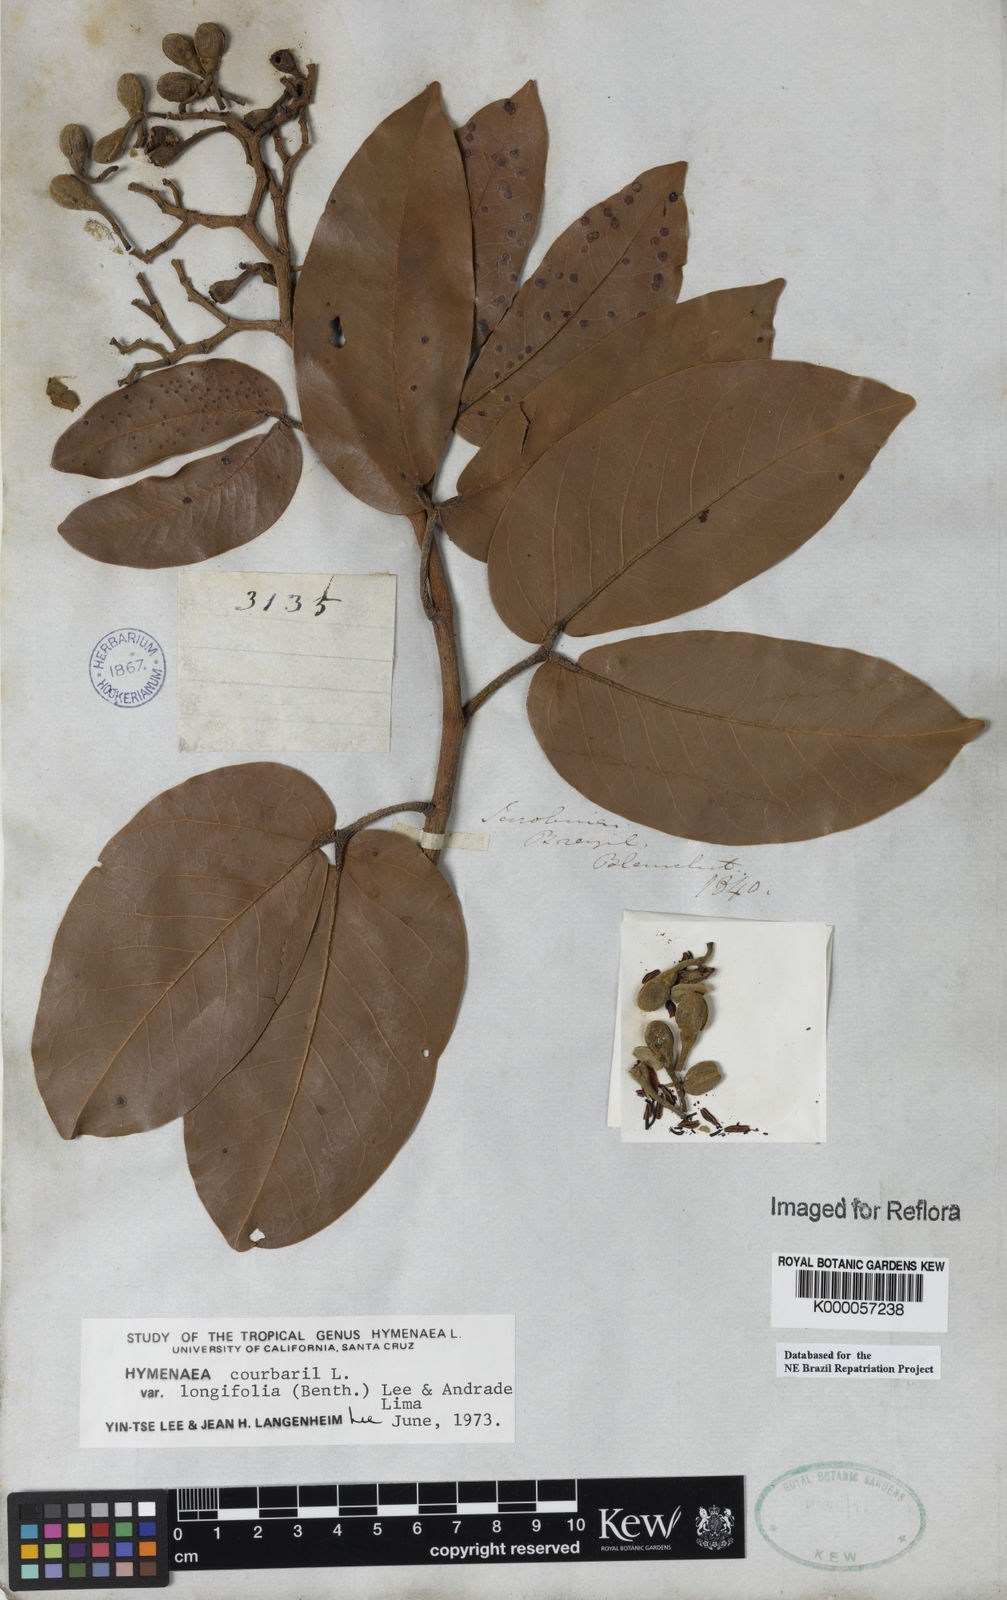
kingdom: Plantae
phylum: Tracheophyta
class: Magnoliopsida
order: Fabales
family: Fabaceae
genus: Hymenaea
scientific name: Hymenaea longifolia
